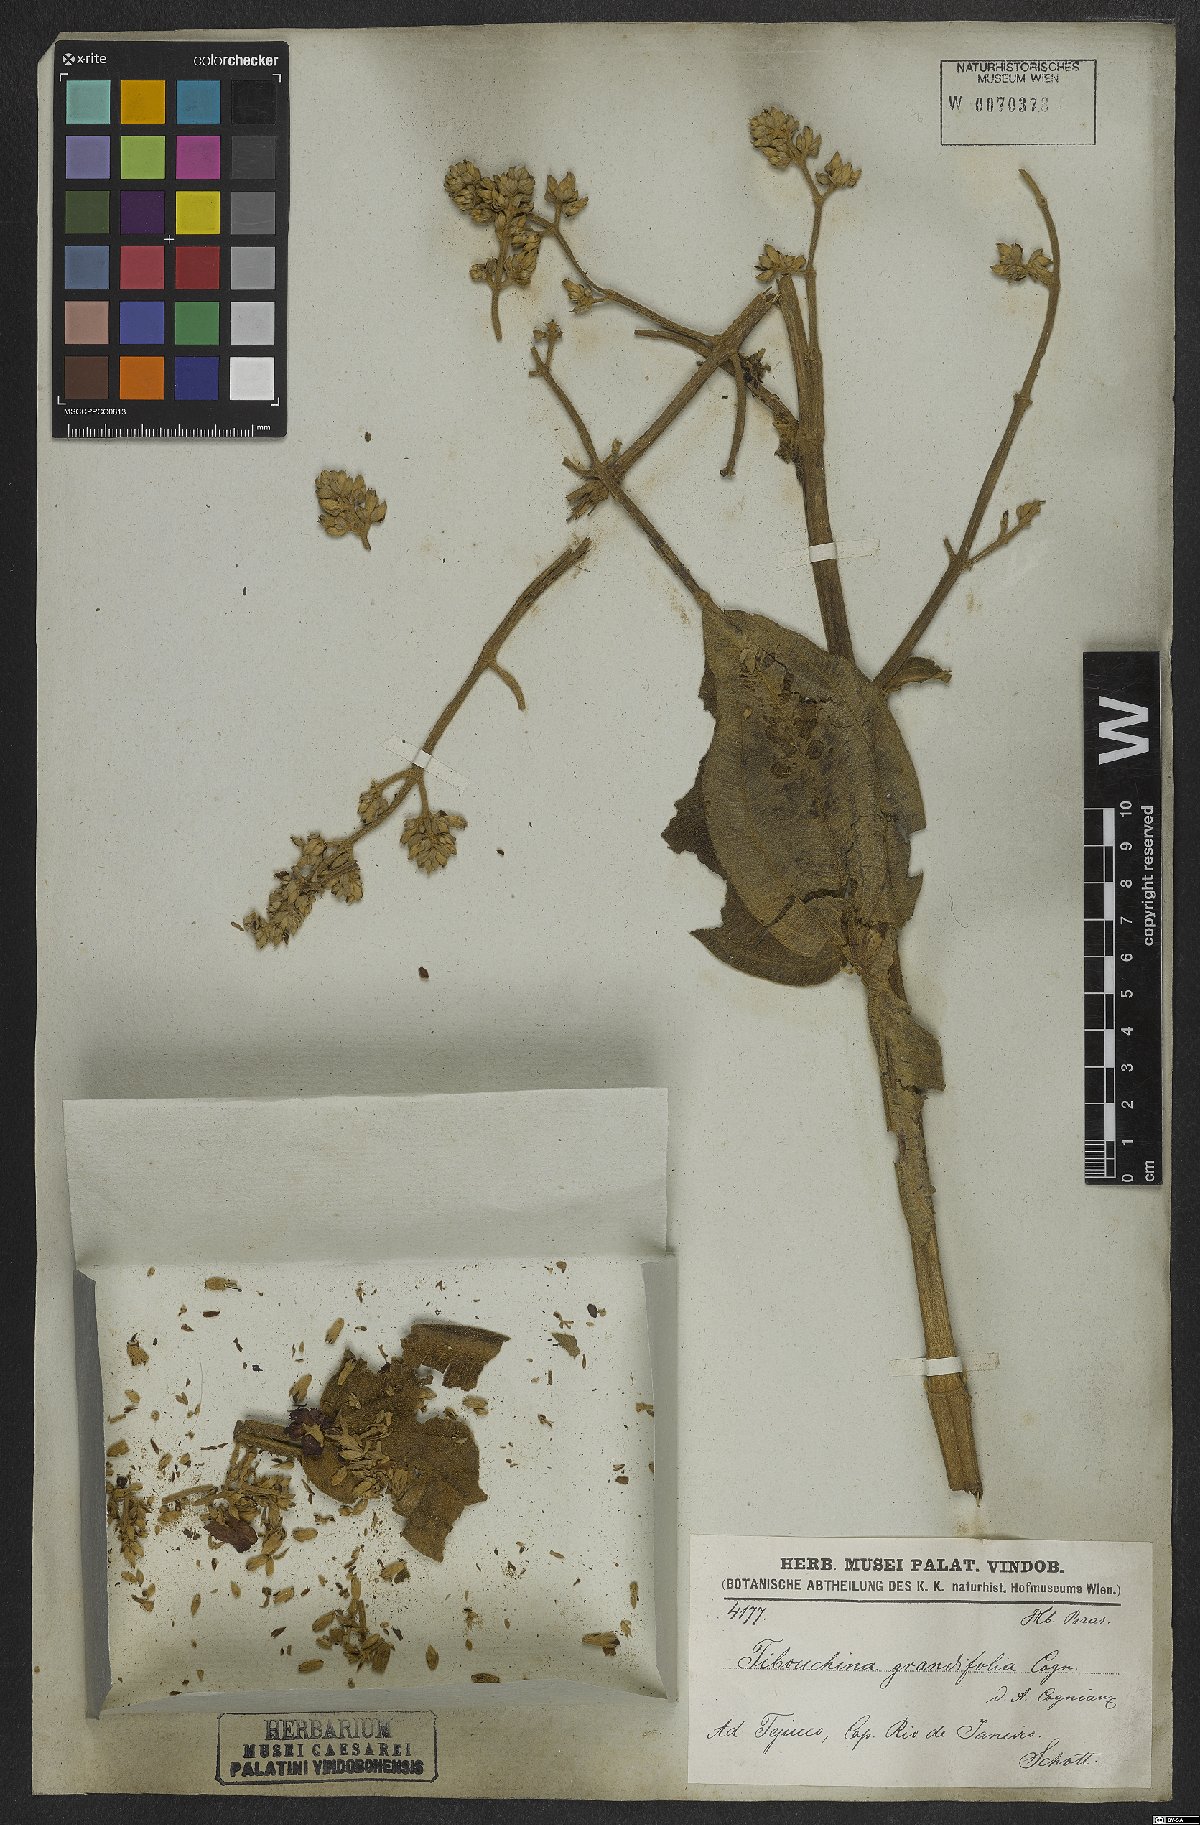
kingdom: Plantae
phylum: Tracheophyta
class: Magnoliopsida
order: Myrtales
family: Melastomataceae
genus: Pleroma
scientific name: Pleroma heteromallum
